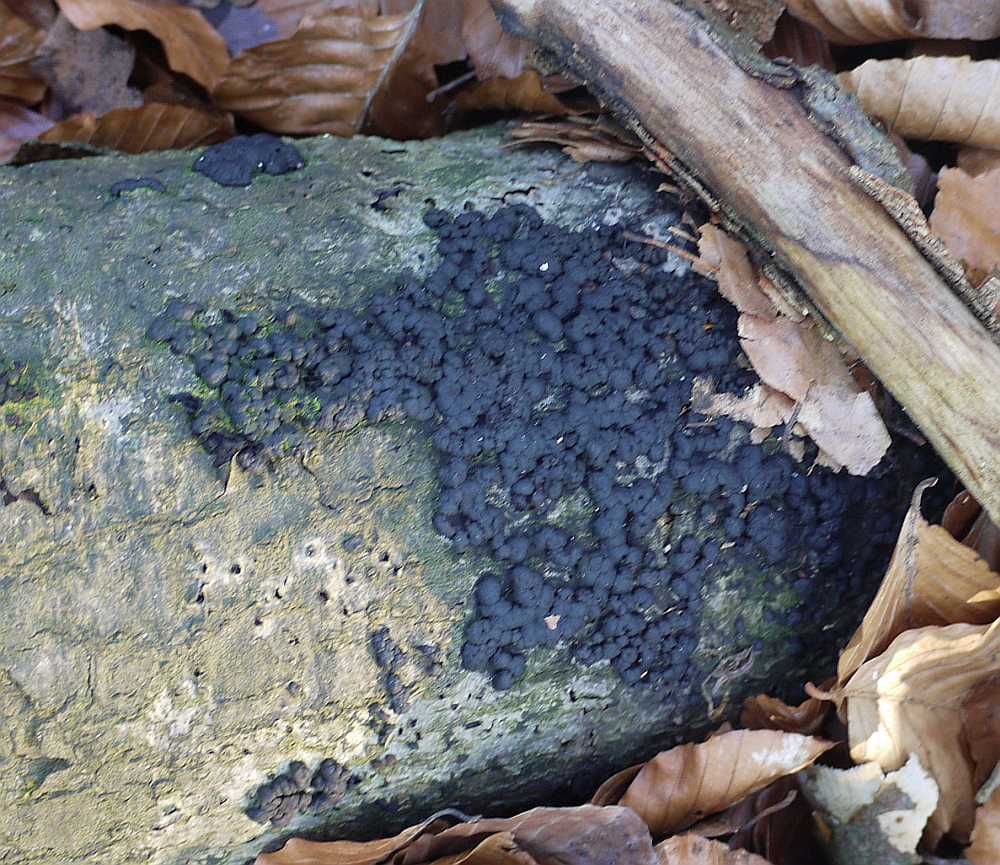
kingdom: Fungi
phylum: Ascomycota
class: Sordariomycetes
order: Xylariales
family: Hypoxylaceae
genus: Jackrogersella
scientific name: Jackrogersella cohaerens
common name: sammenflydende kulbær
